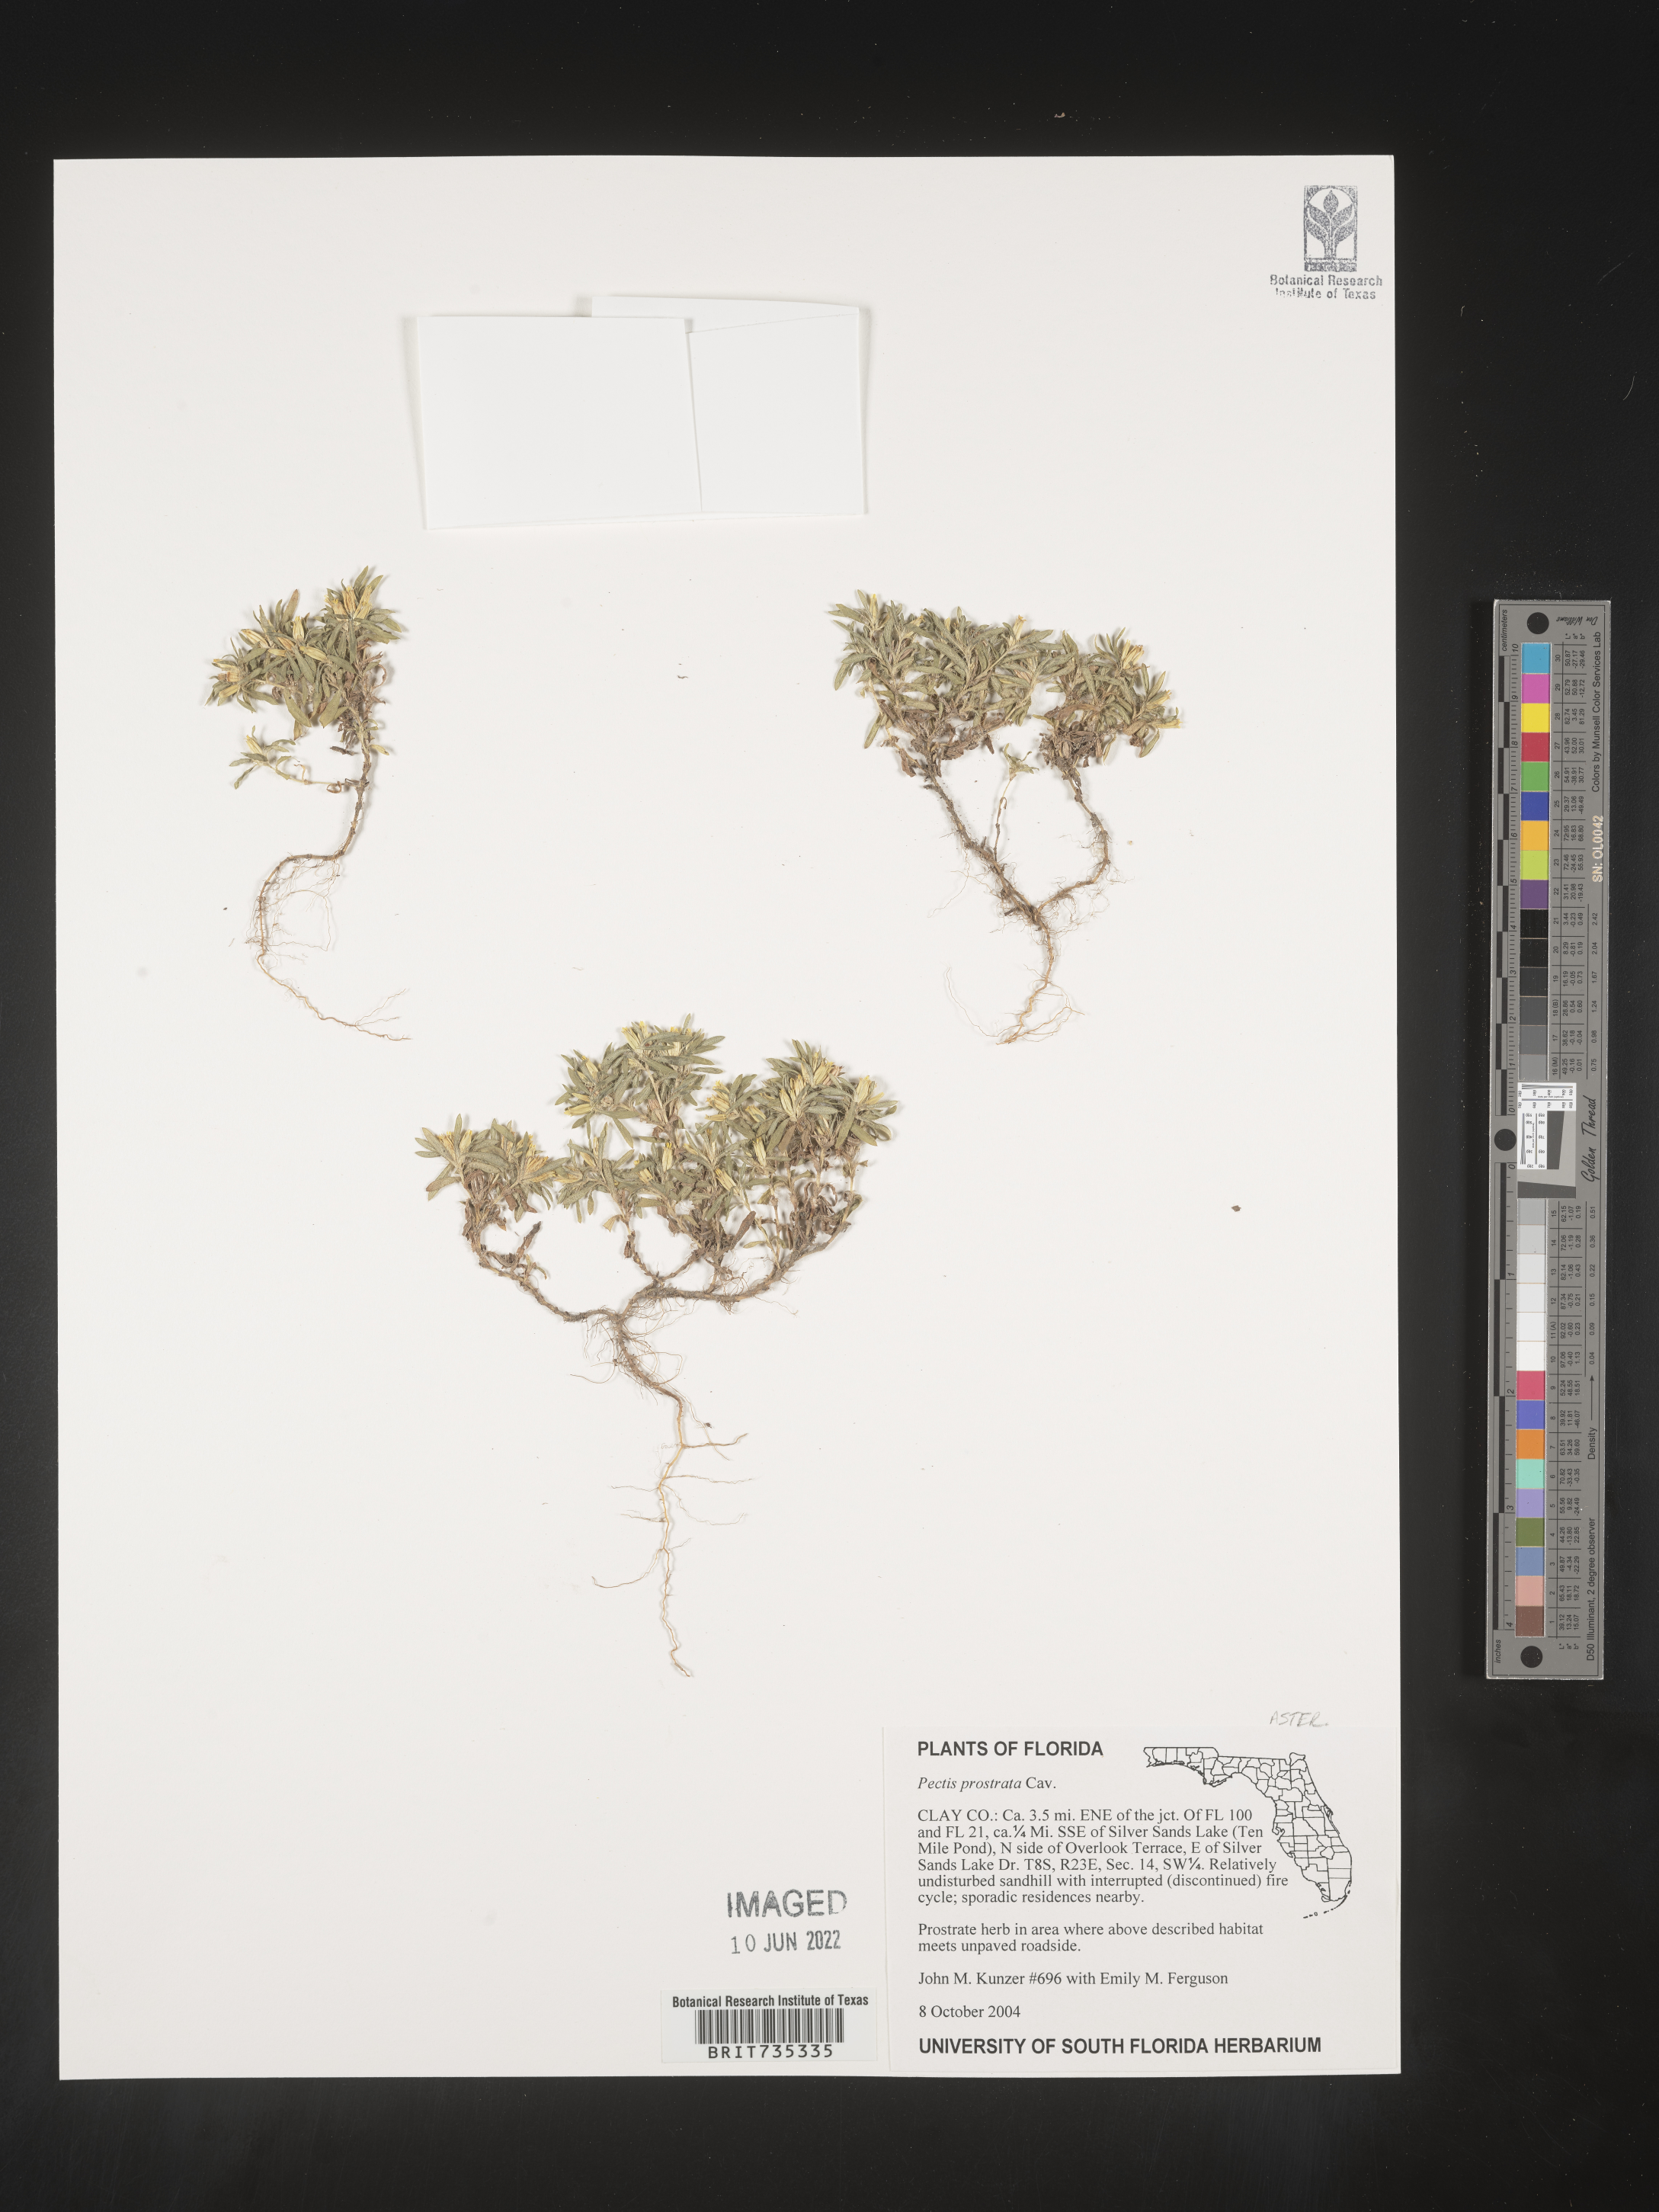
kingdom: Plantae
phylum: Tracheophyta
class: Magnoliopsida
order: Asterales
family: Asteraceae
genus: Pectis
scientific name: Pectis prostrata
